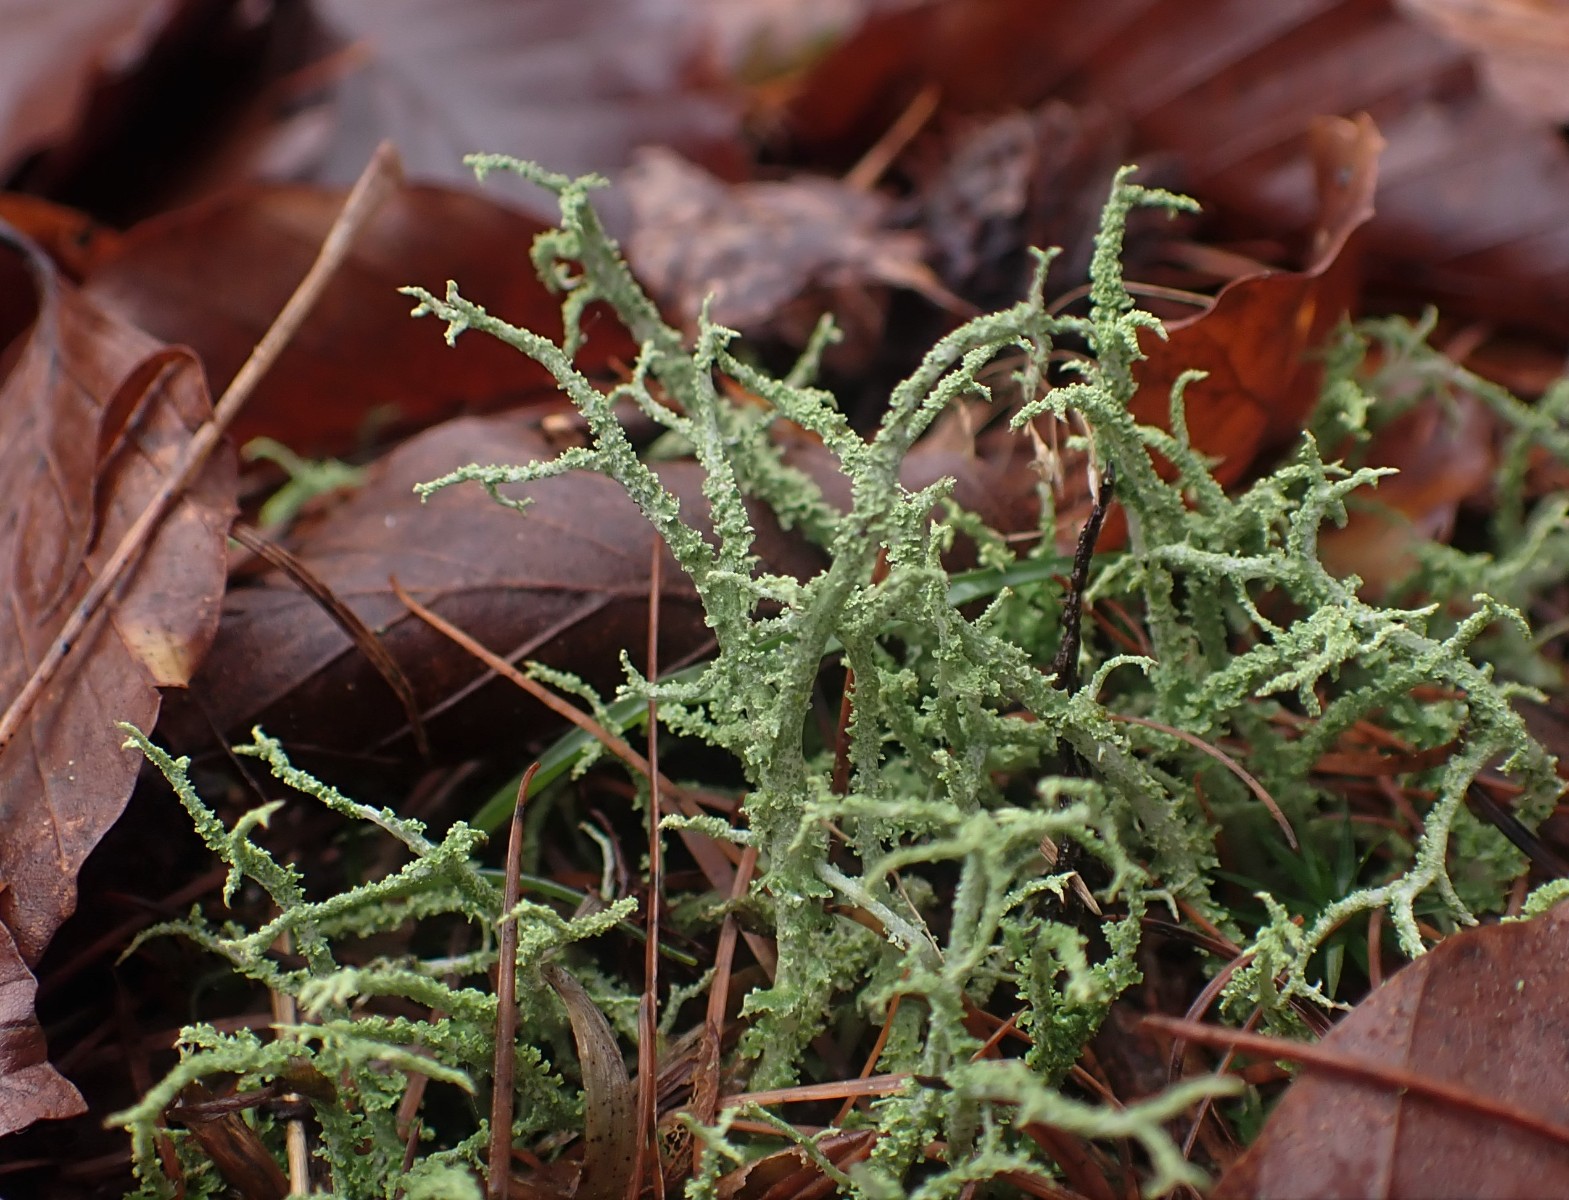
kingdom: Fungi
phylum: Ascomycota
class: Lecanoromycetes
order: Lecanorales
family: Cladoniaceae
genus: Cladonia
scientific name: Cladonia scabriuscula
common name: ru bægerlav
